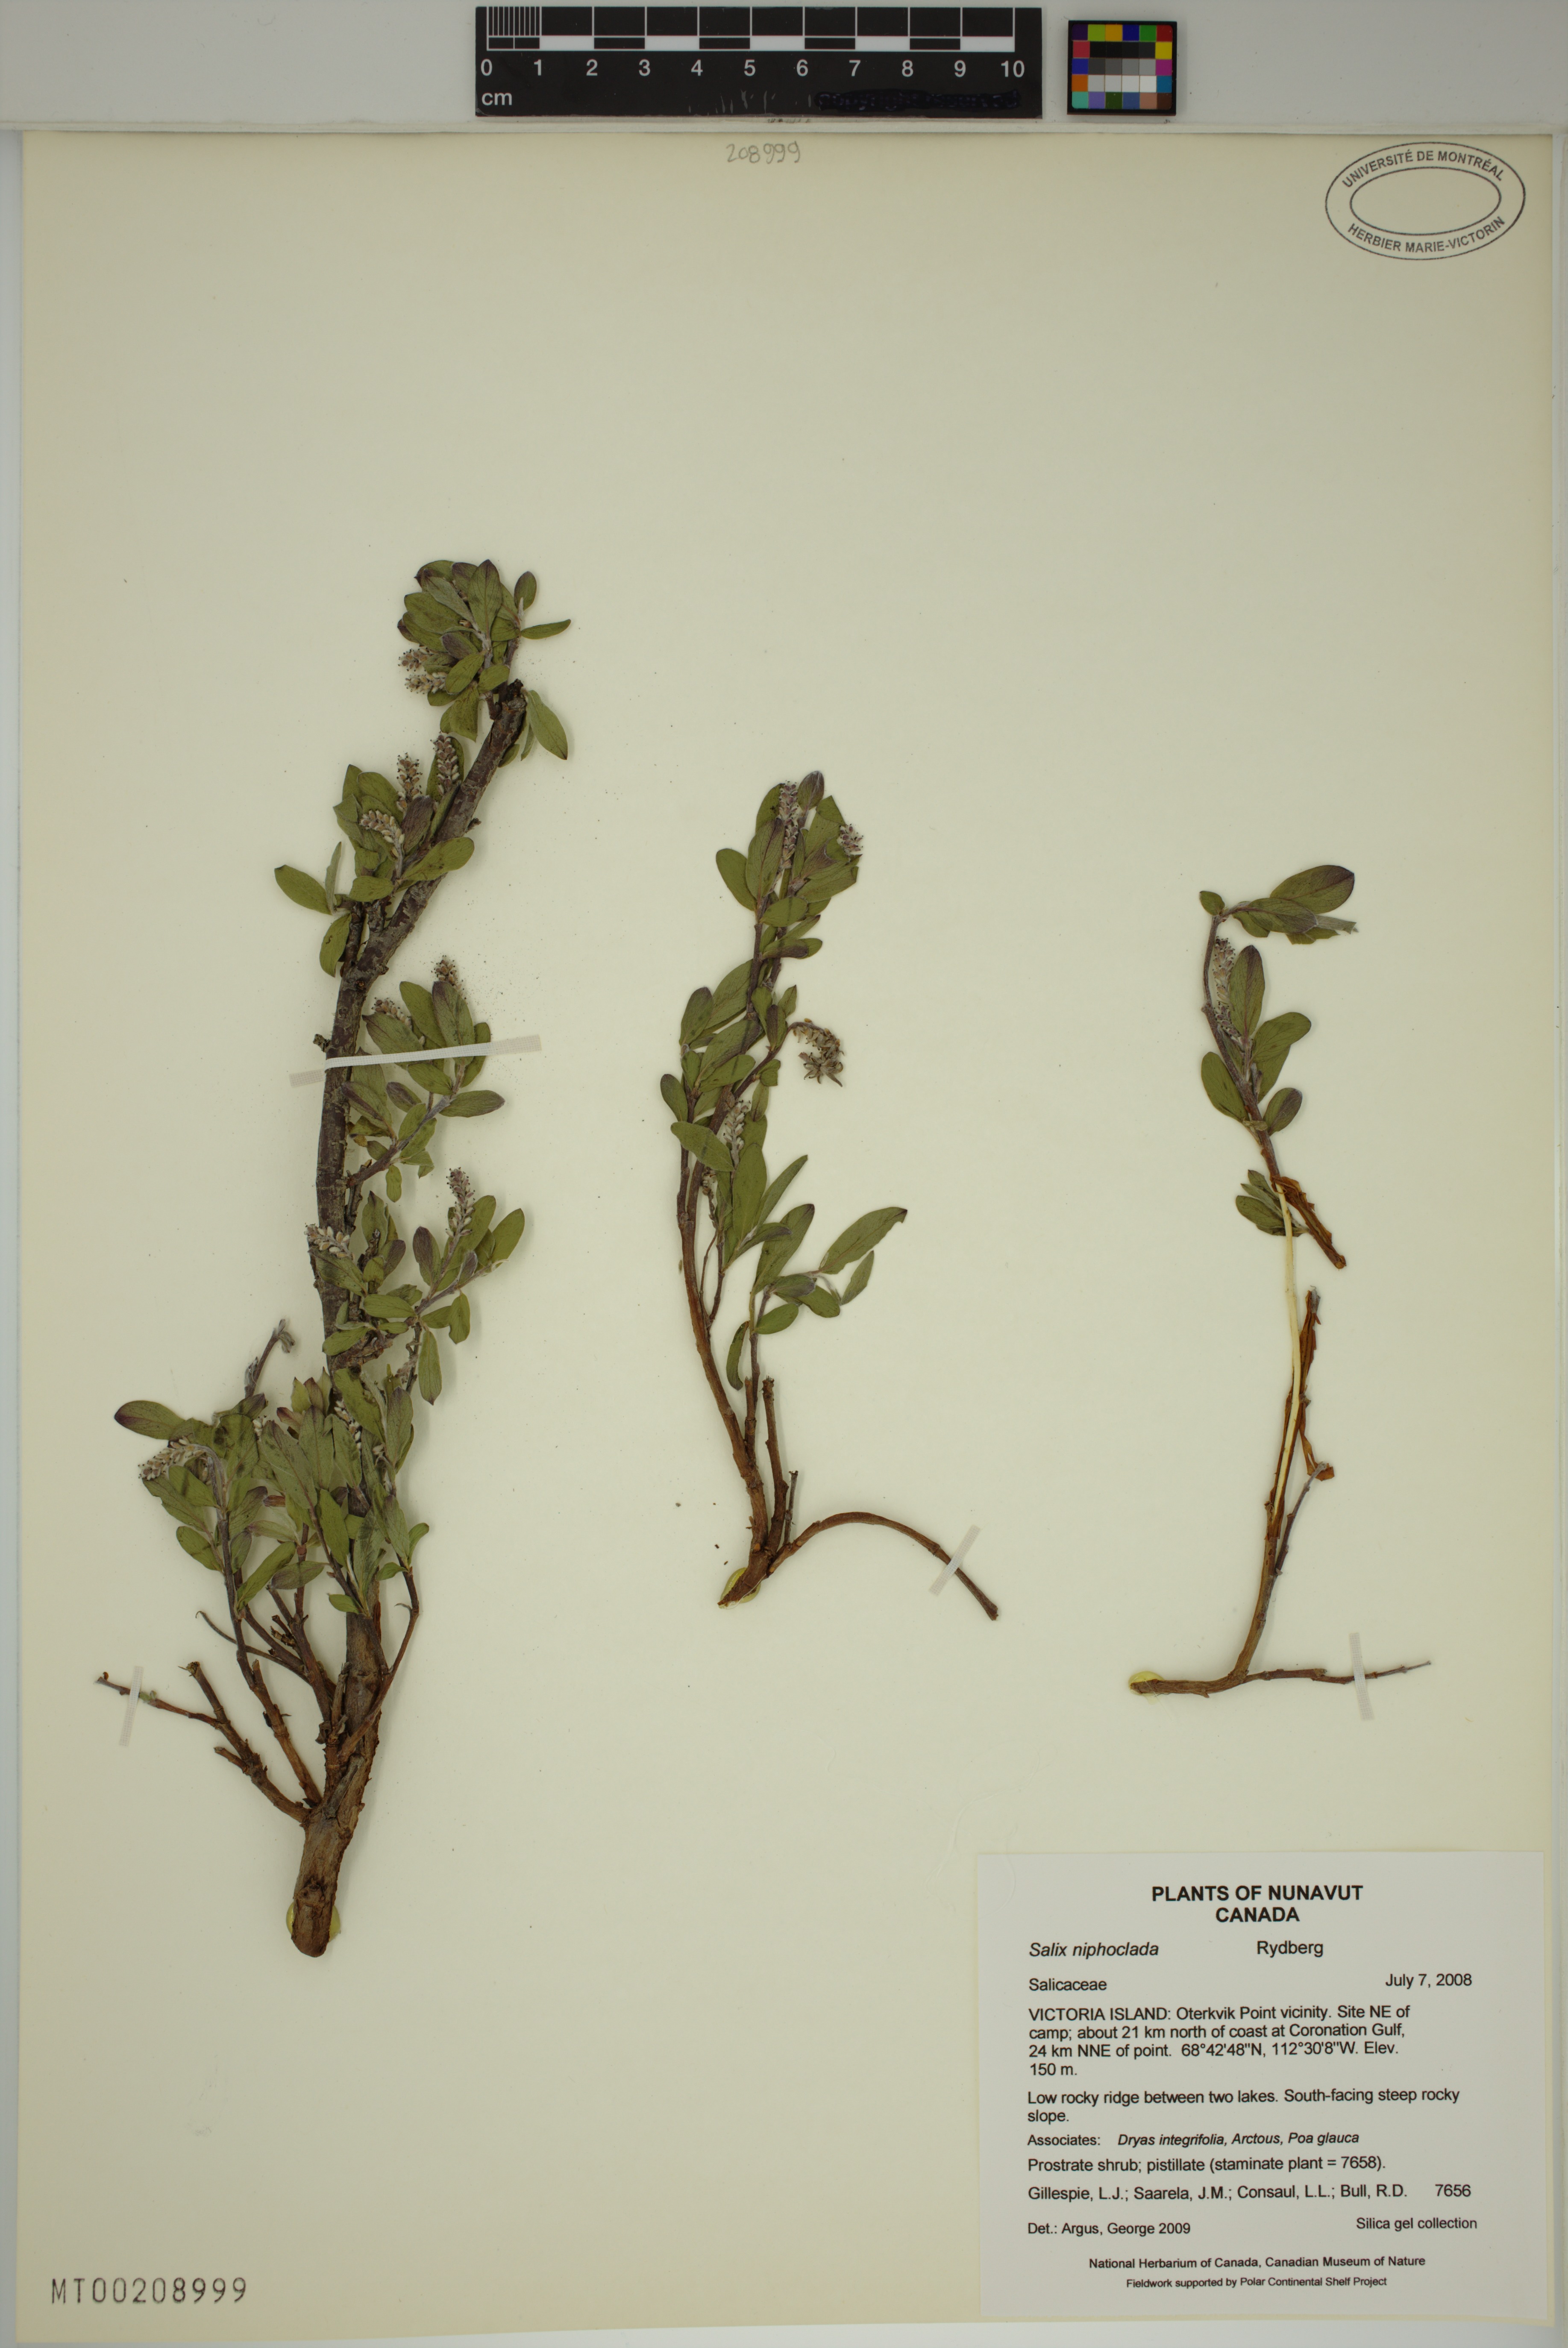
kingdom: Plantae
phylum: Tracheophyta
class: Magnoliopsida
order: Malpighiales
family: Salicaceae
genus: Salix
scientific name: Salix niphoclada
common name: Barren-ground willow
